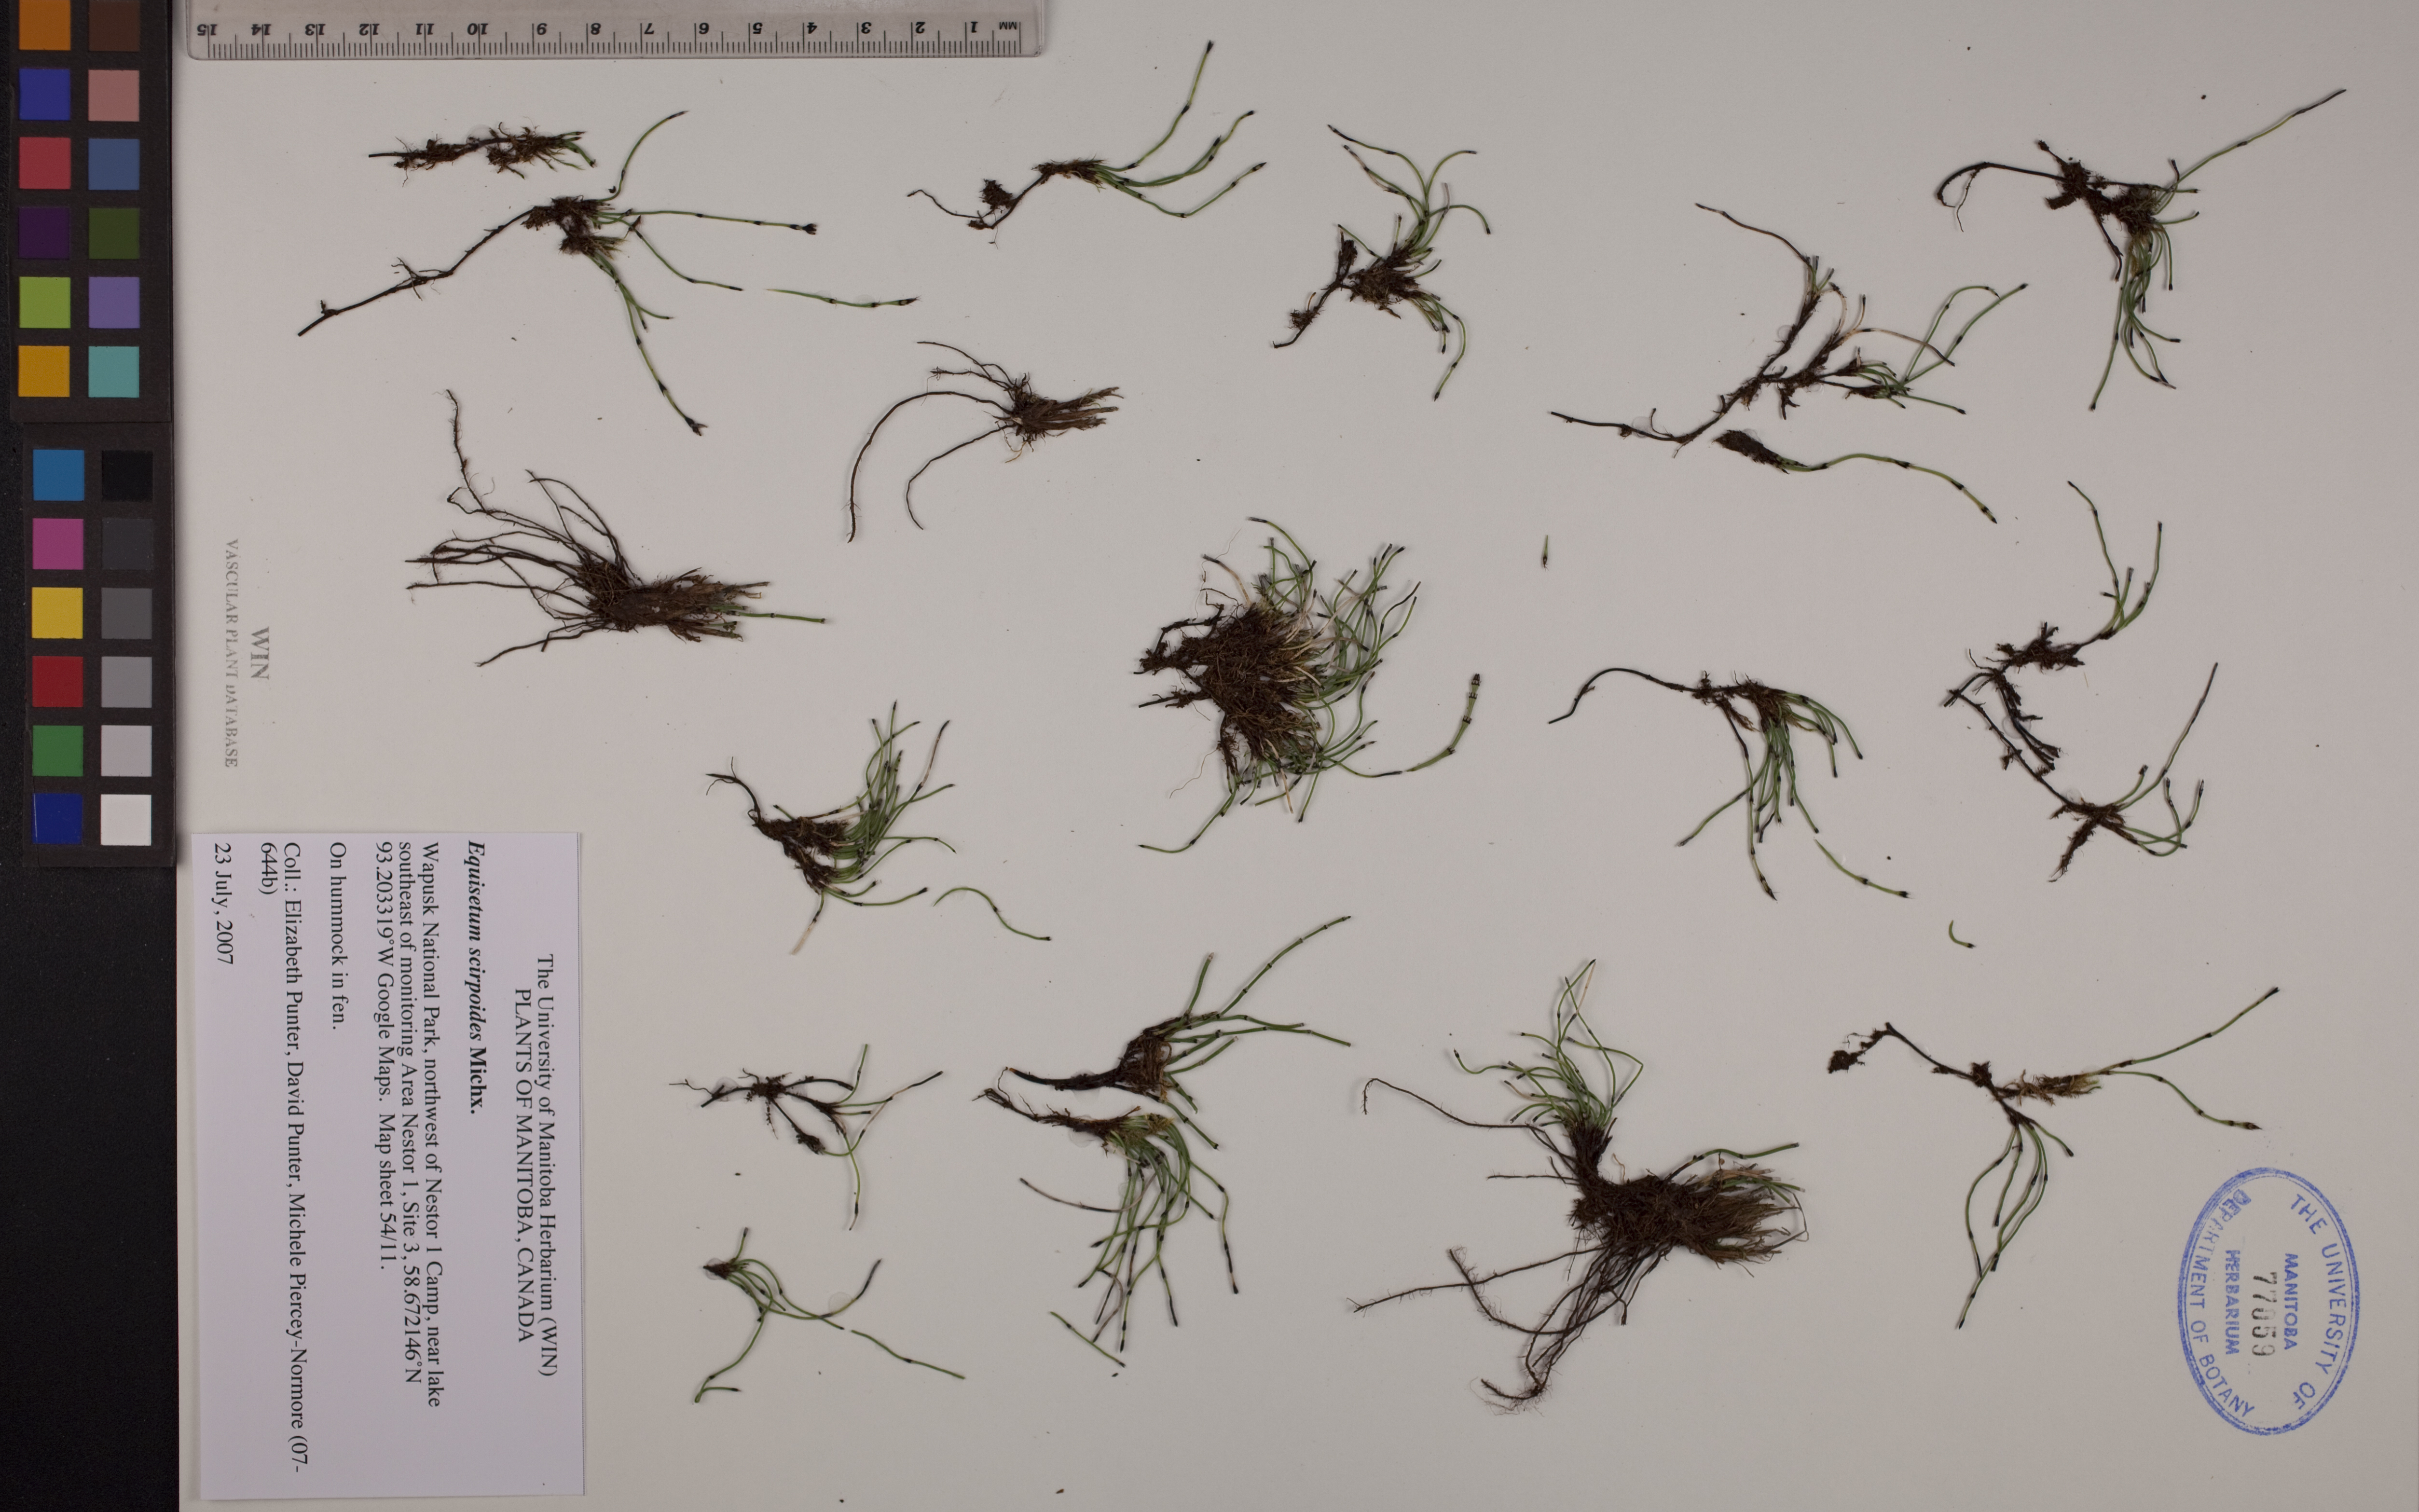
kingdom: Plantae
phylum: Tracheophyta
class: Polypodiopsida
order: Equisetales
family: Equisetaceae
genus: Equisetum
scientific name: Equisetum scirpoides
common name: Delicate horsetail
